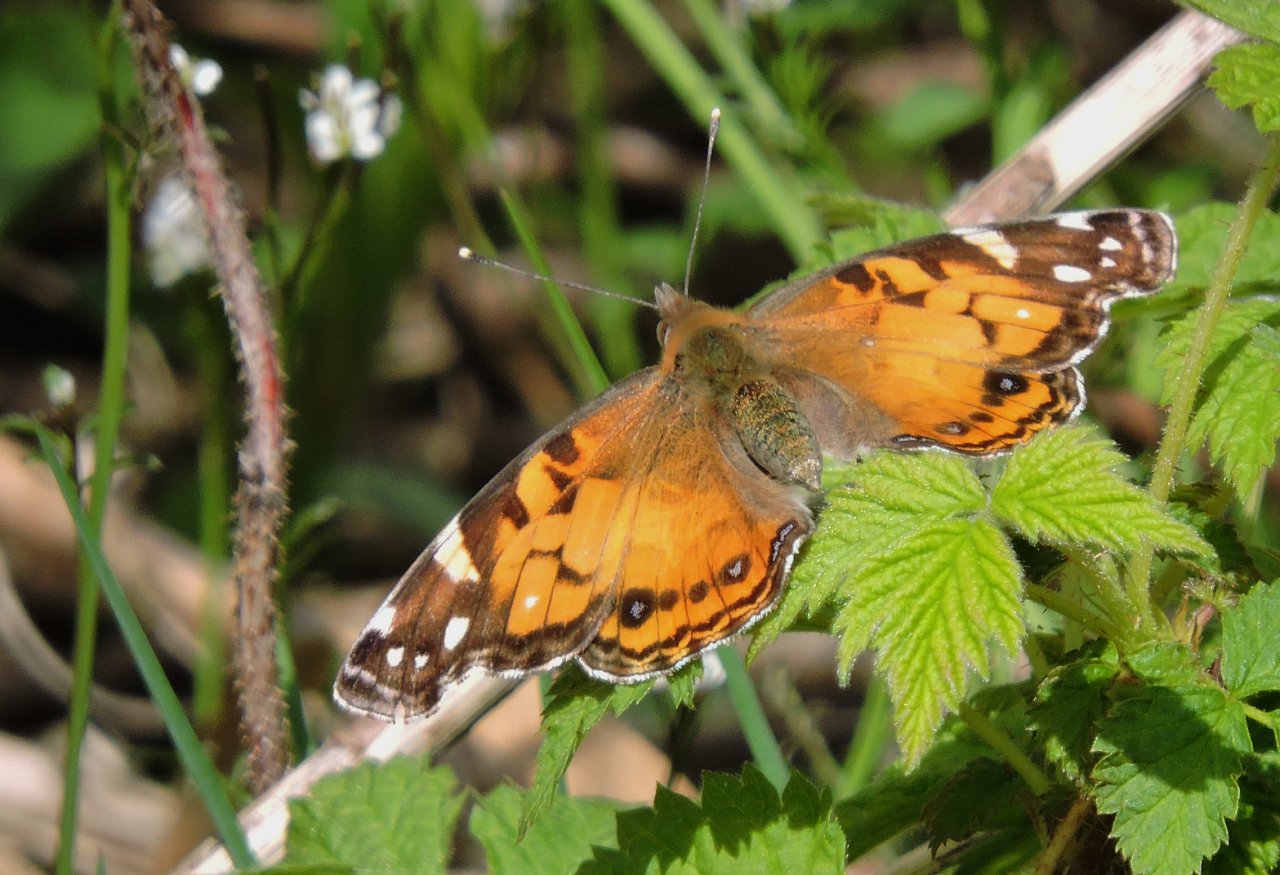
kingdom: Animalia
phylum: Arthropoda
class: Insecta
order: Lepidoptera
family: Nymphalidae
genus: Vanessa
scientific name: Vanessa virginiensis
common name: American Lady
